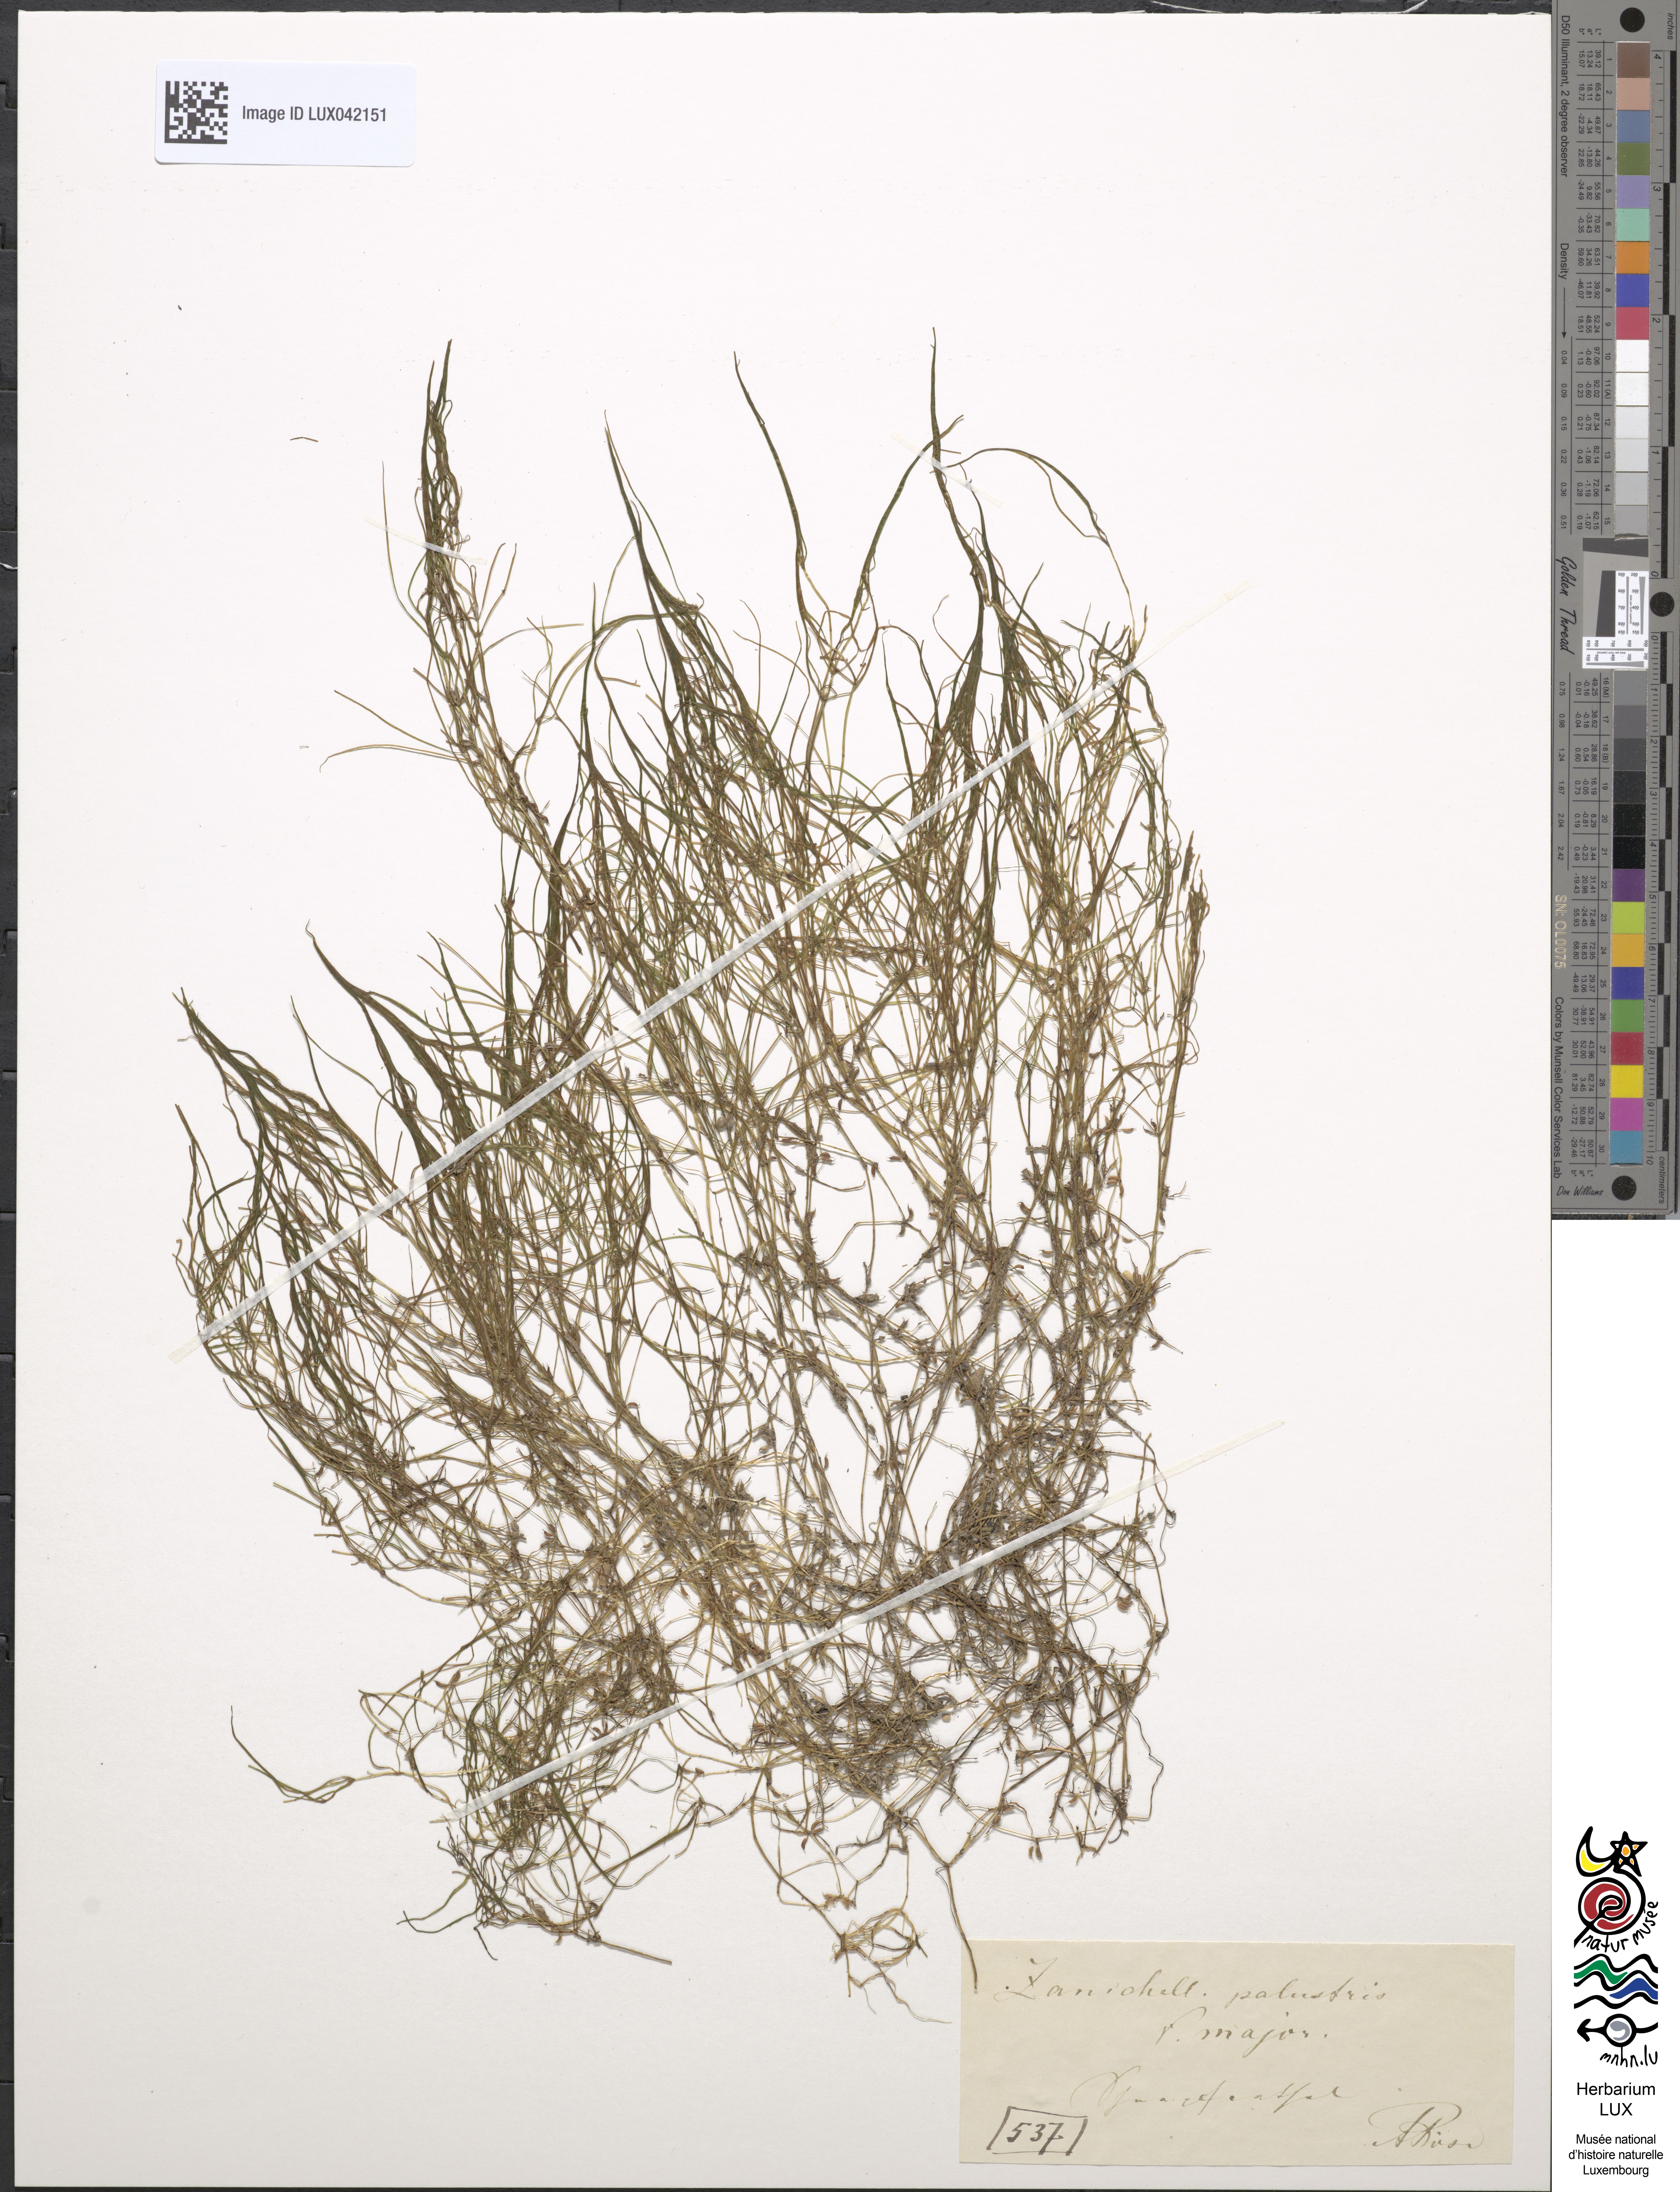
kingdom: Plantae
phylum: Tracheophyta
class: Liliopsida
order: Alismatales
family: Potamogetonaceae
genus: Zannichellia
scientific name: Zannichellia palustris
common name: Horned pondweed
